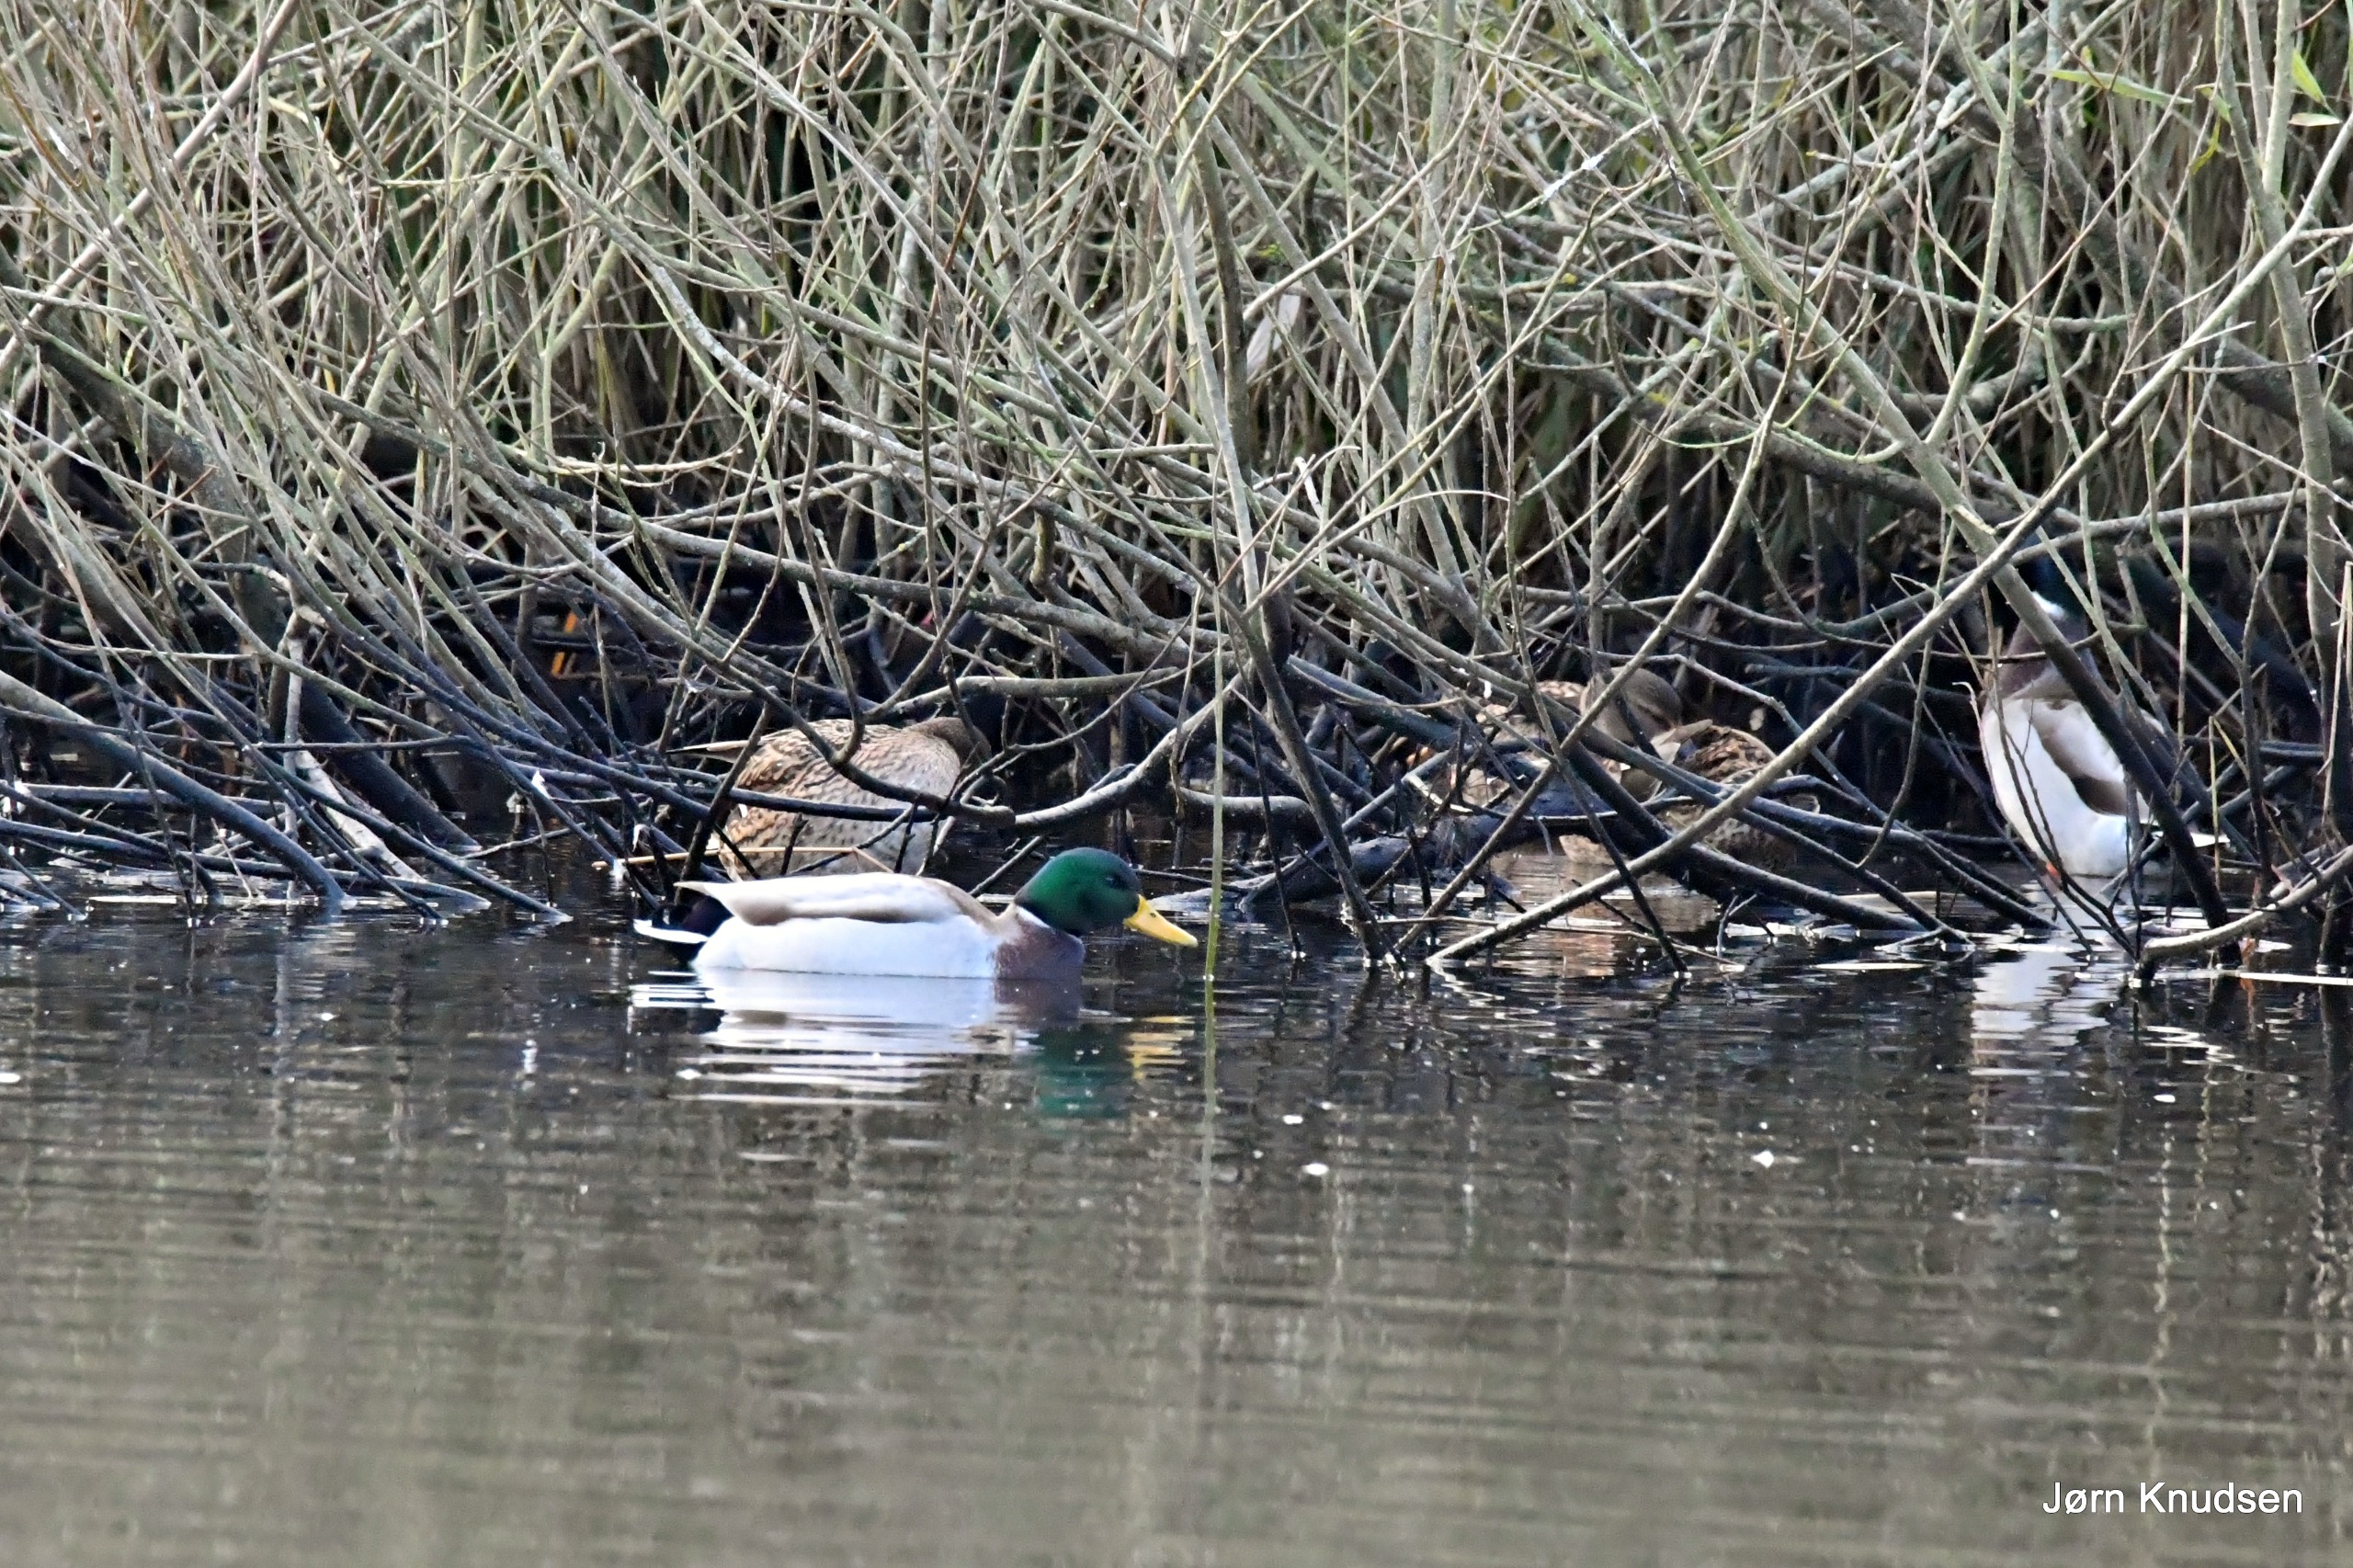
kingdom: Animalia
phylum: Chordata
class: Aves
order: Anseriformes
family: Anatidae
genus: Anas
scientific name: Anas platyrhynchos
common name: Gråand
